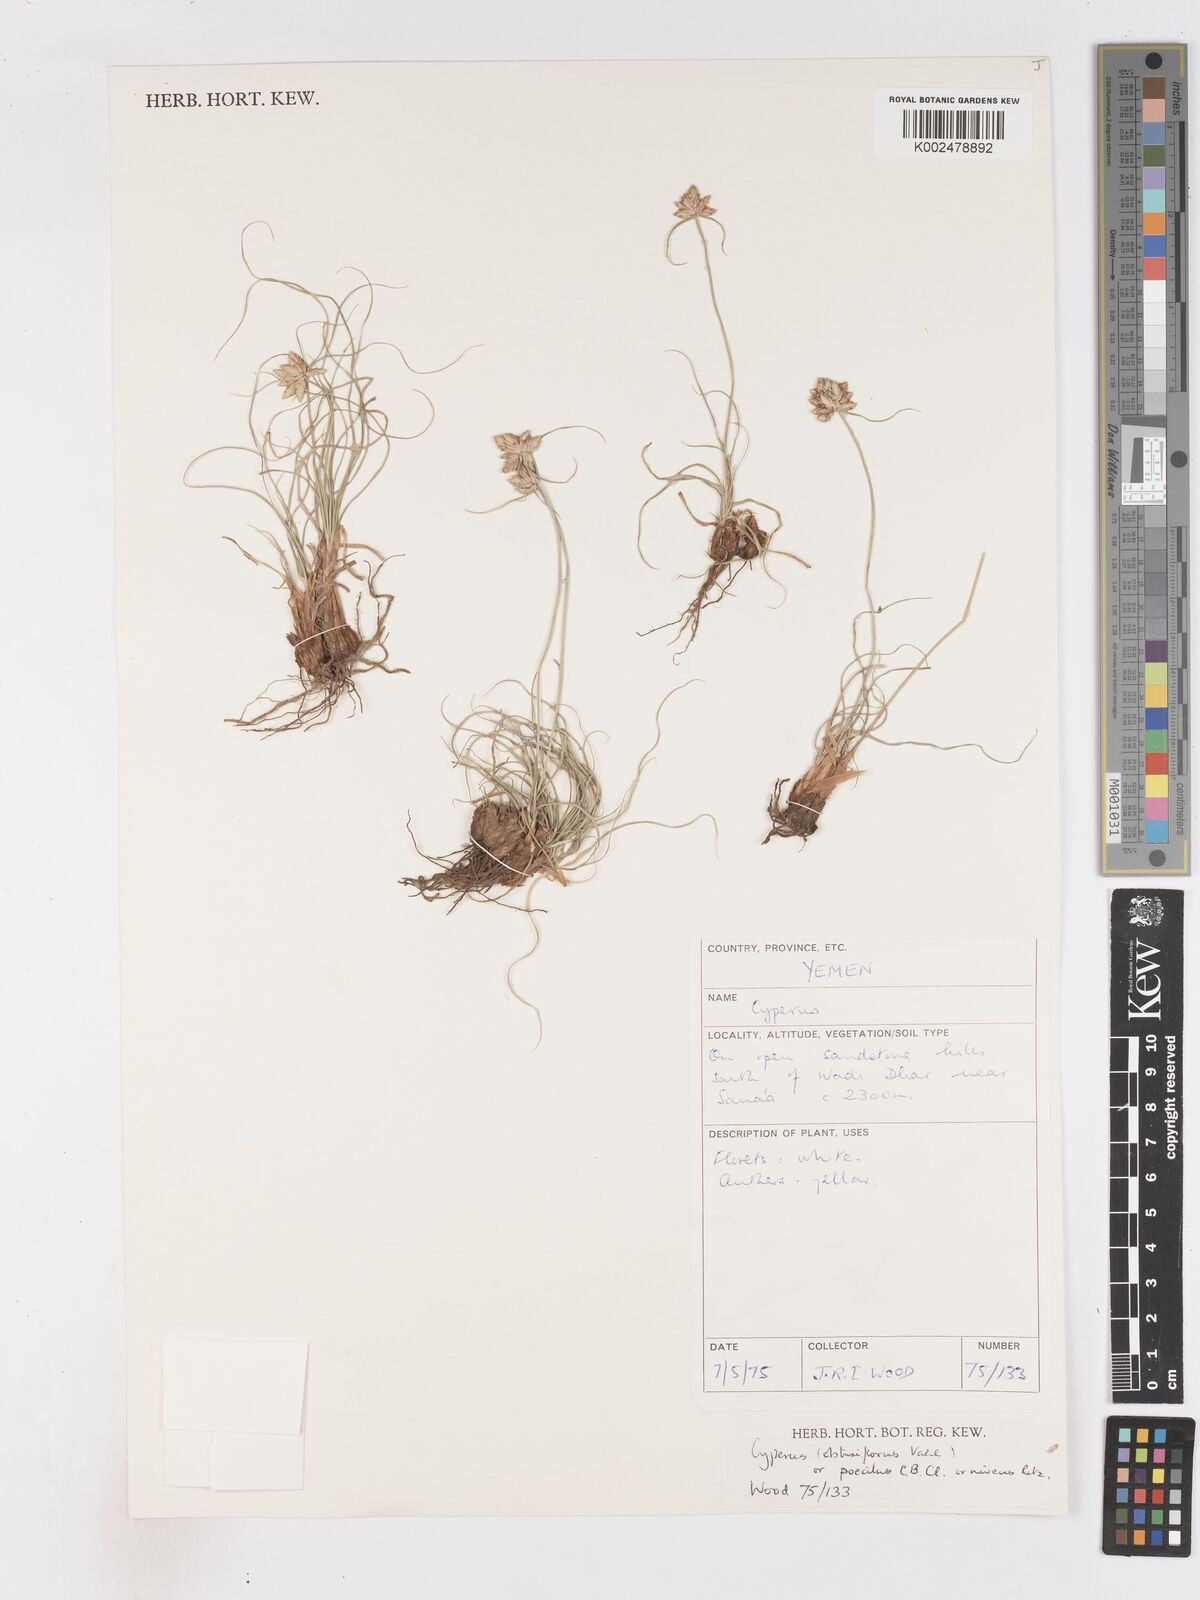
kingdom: Plantae
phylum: Tracheophyta
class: Liliopsida
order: Poales
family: Cyperaceae
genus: Cyperus
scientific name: Cyperus niveus
